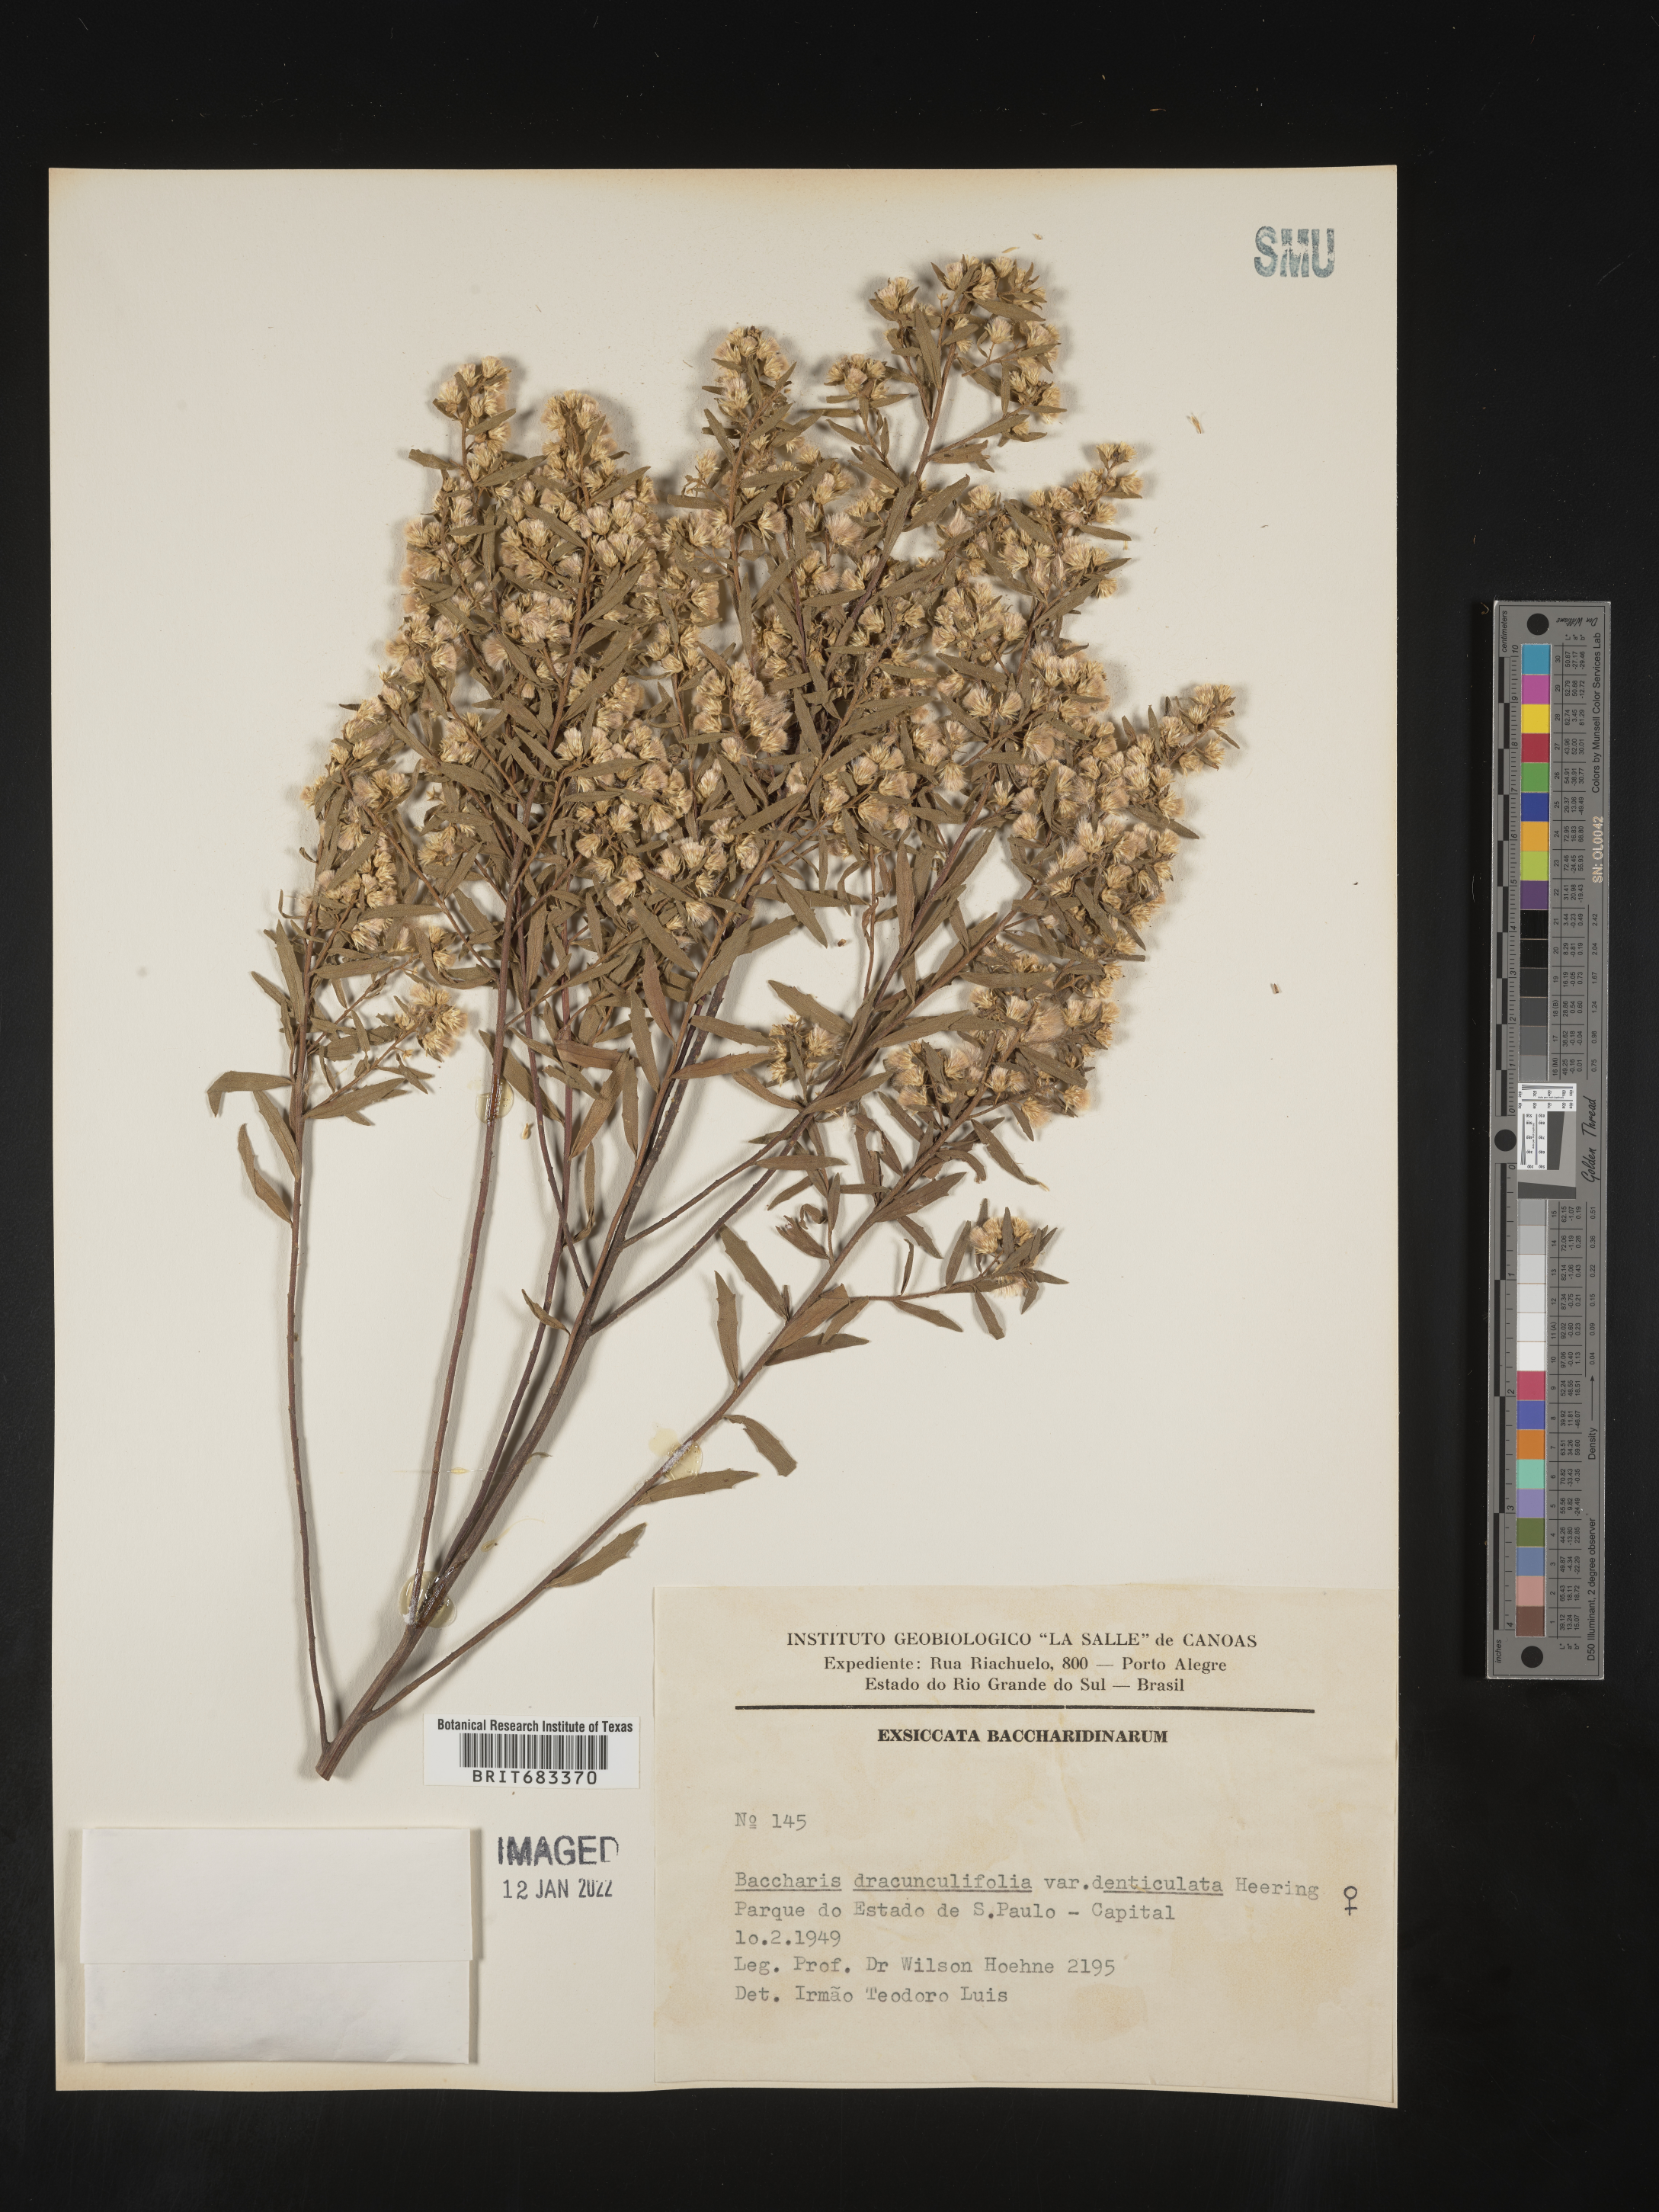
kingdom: Plantae
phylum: Tracheophyta
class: Magnoliopsida
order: Asterales
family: Asteraceae
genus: Baccharis
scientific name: Baccharis
